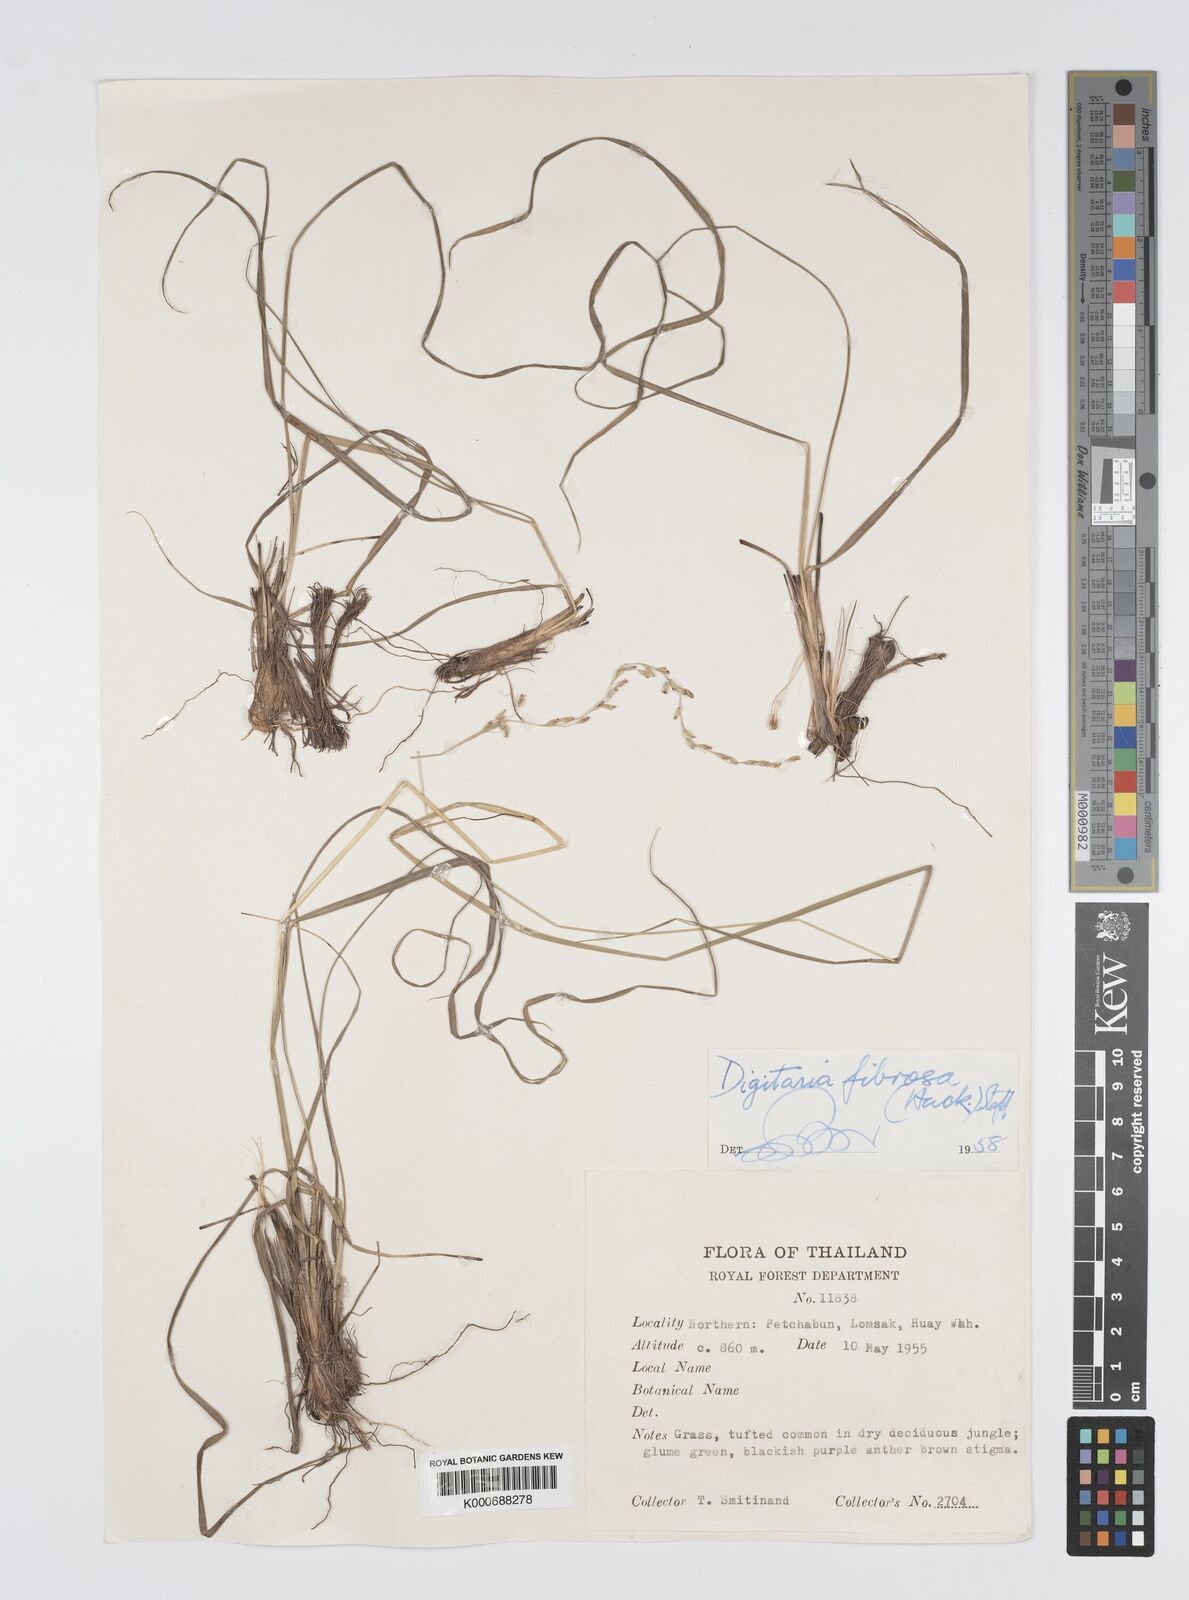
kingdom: Plantae
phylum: Tracheophyta
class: Liliopsida
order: Poales
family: Poaceae
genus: Digitaria
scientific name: Digitaria setifolia
